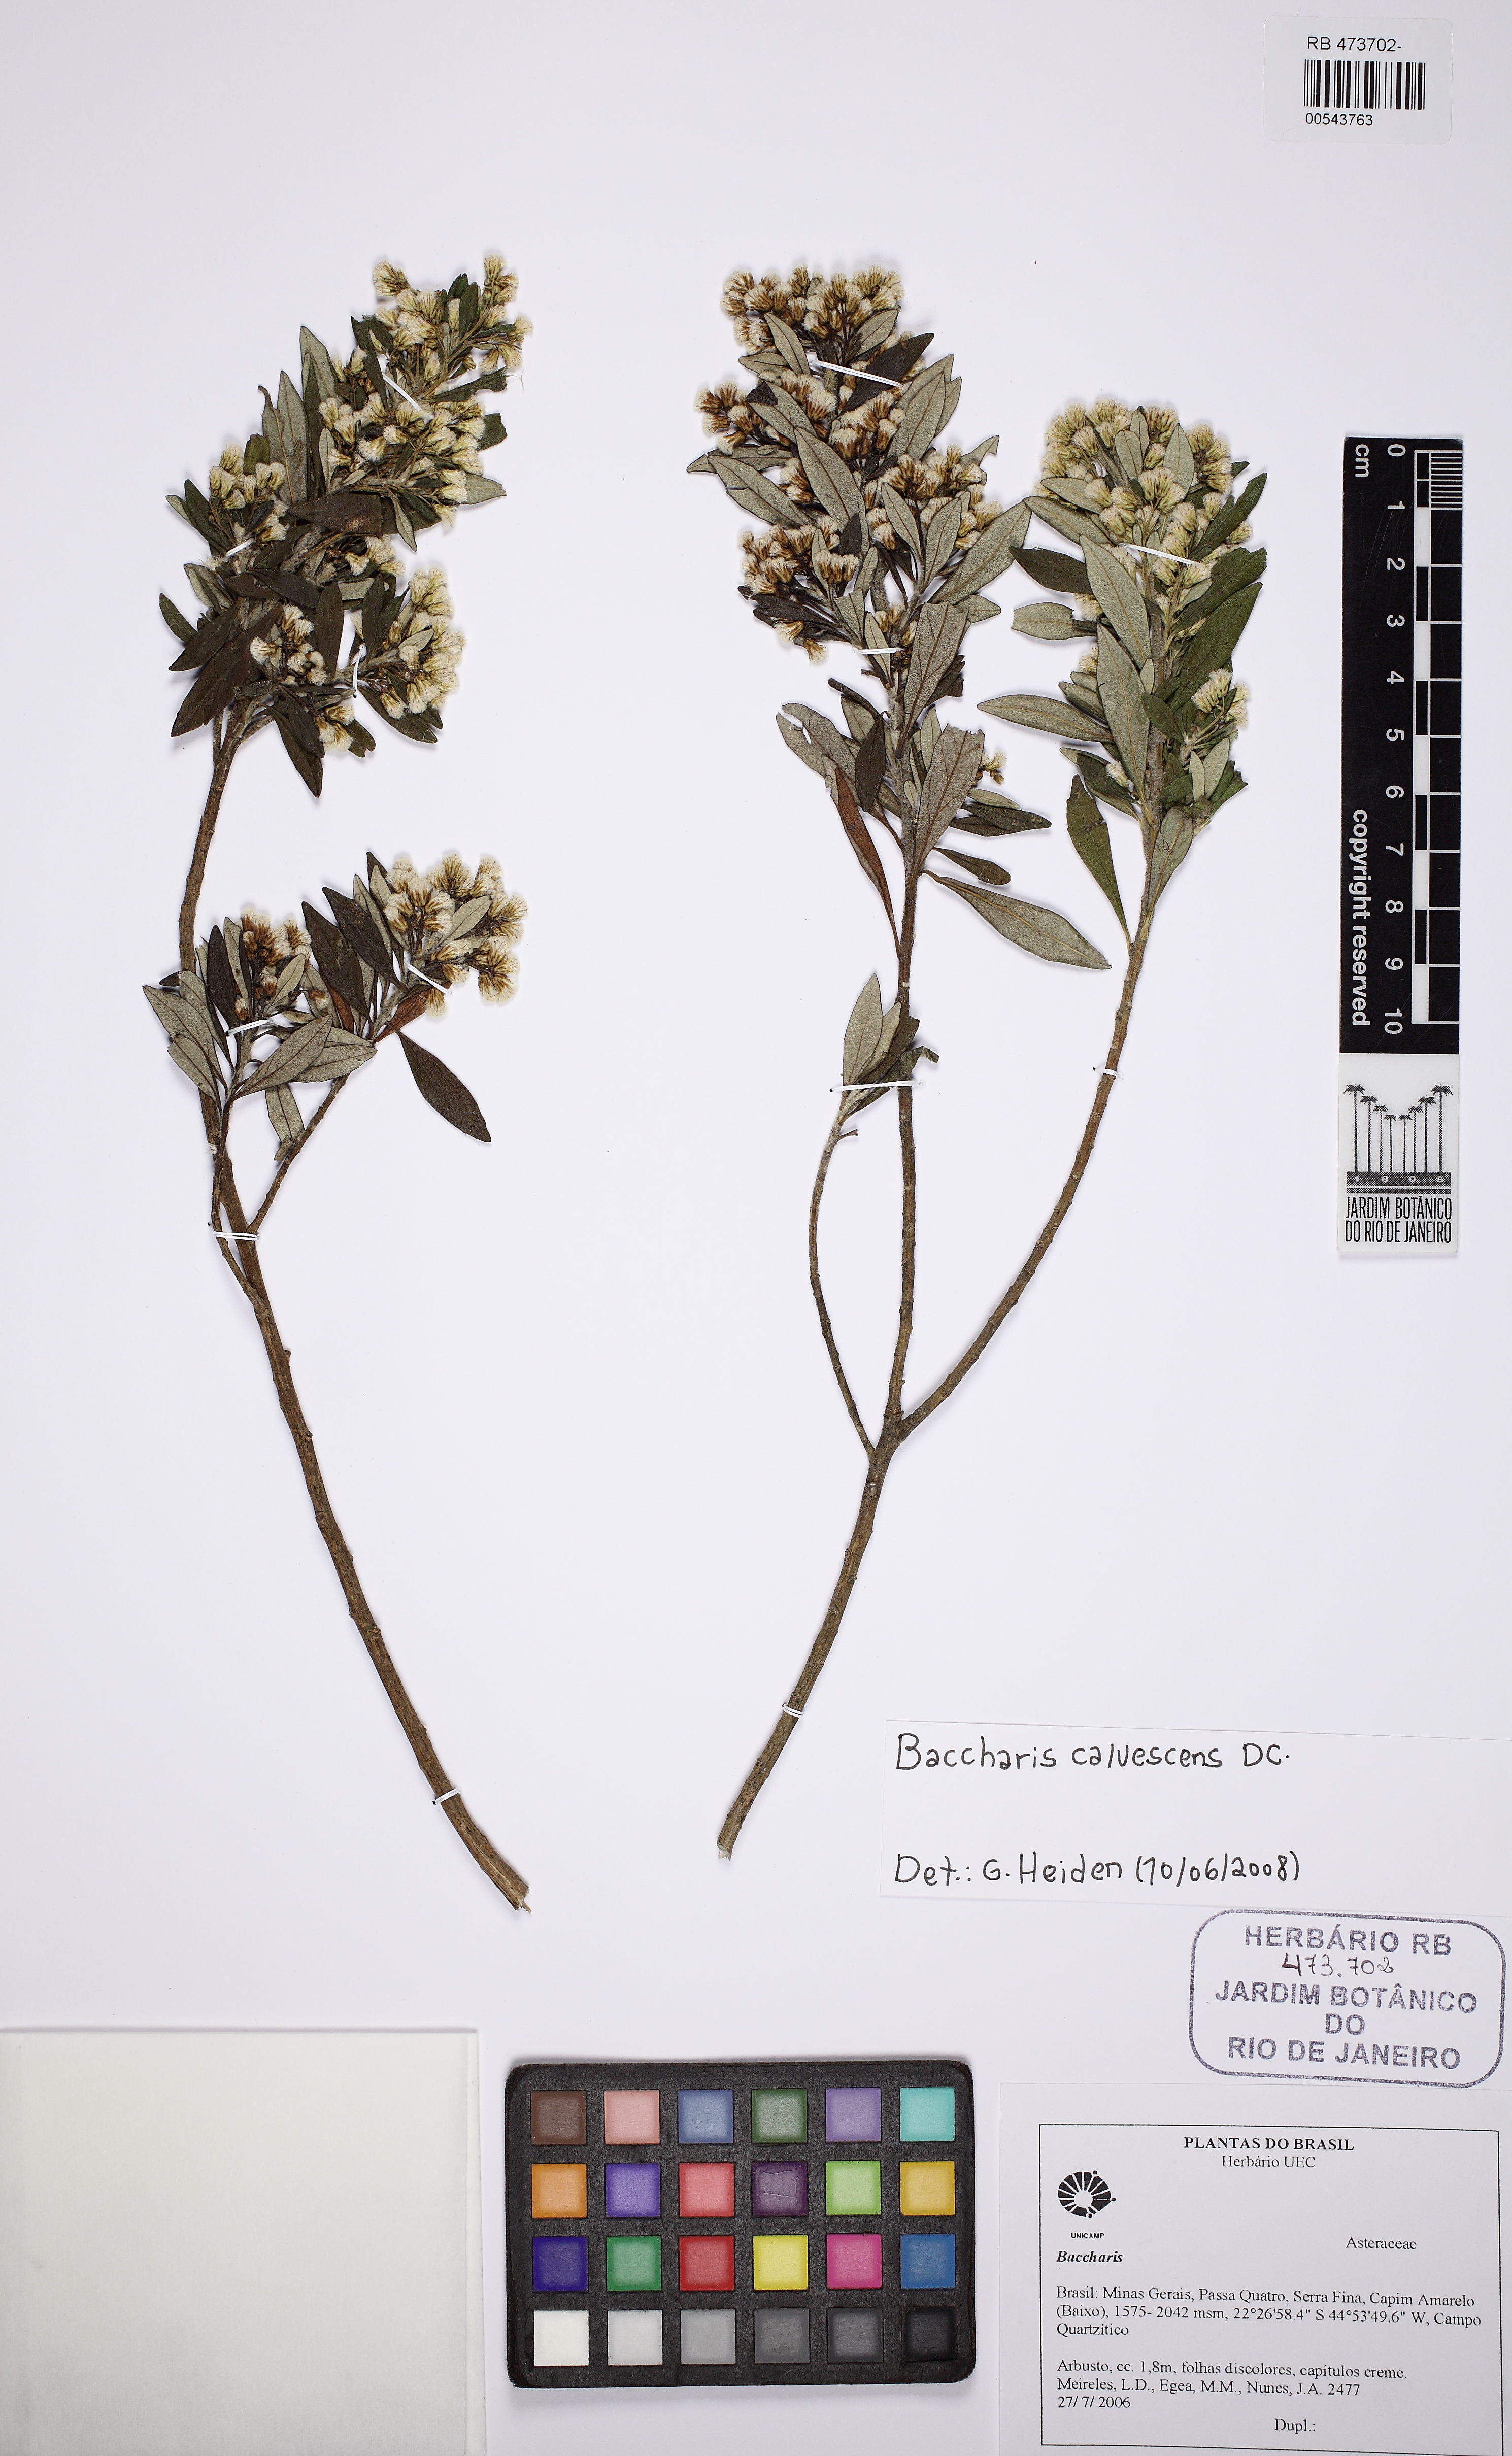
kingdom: Plantae
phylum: Tracheophyta
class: Magnoliopsida
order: Asterales
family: Asteraceae
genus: Baccharis
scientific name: Baccharis calvescens
